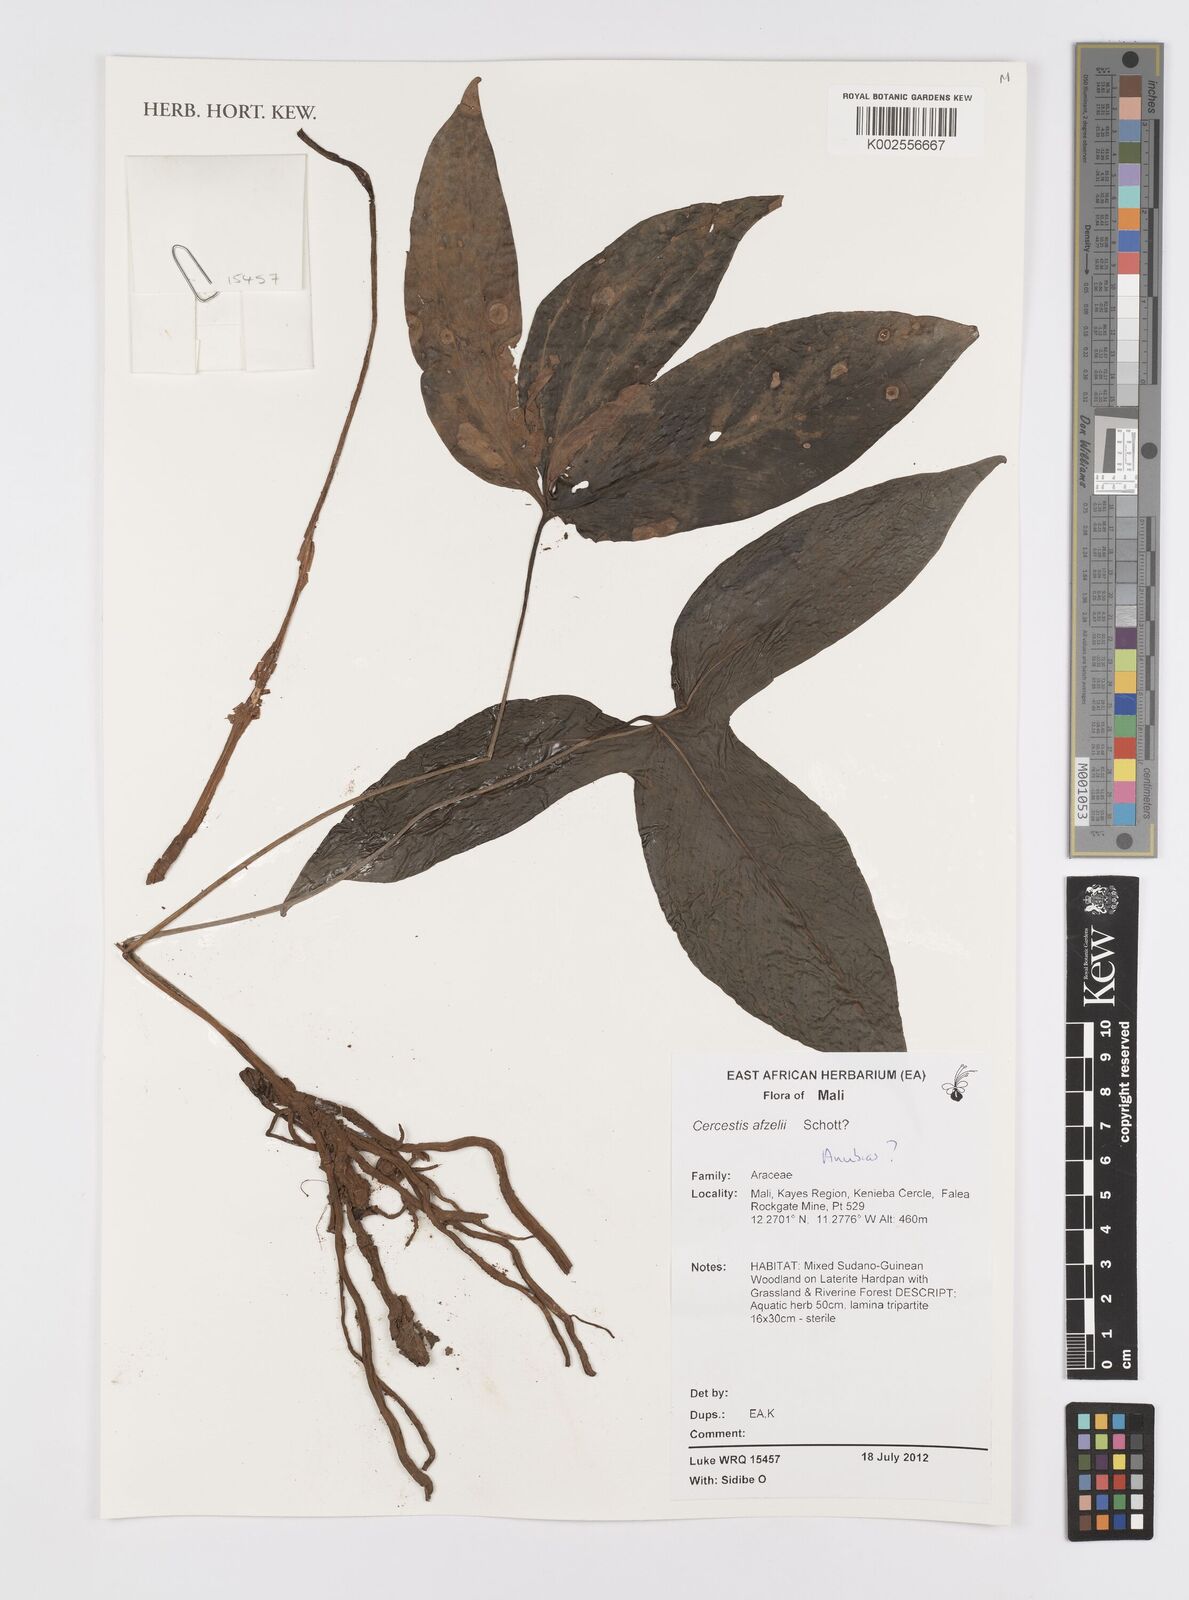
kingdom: Plantae
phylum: Tracheophyta
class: Liliopsida
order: Alismatales
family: Araceae
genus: Cercestis
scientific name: Cercestis afzelii
